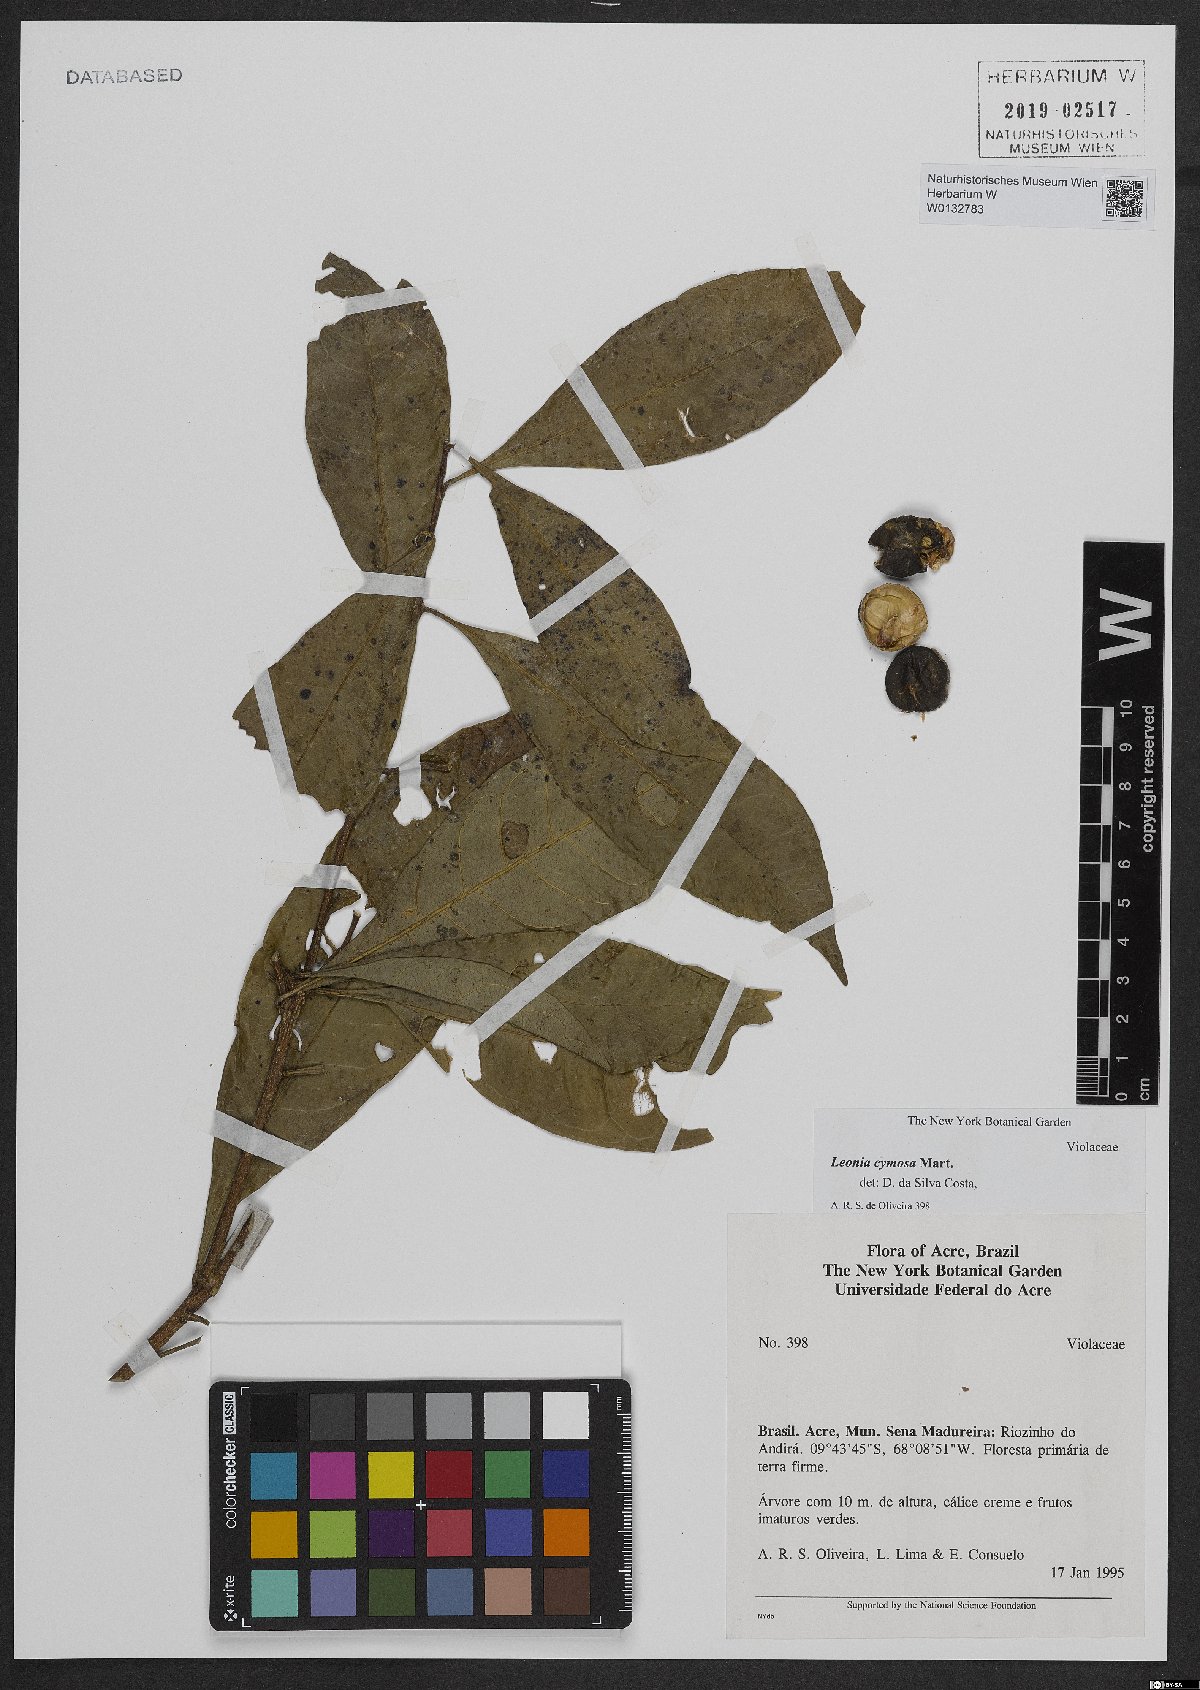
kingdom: Plantae
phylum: Tracheophyta
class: Magnoliopsida
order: Malpighiales
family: Violaceae
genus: Leonia
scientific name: Leonia cymosa
